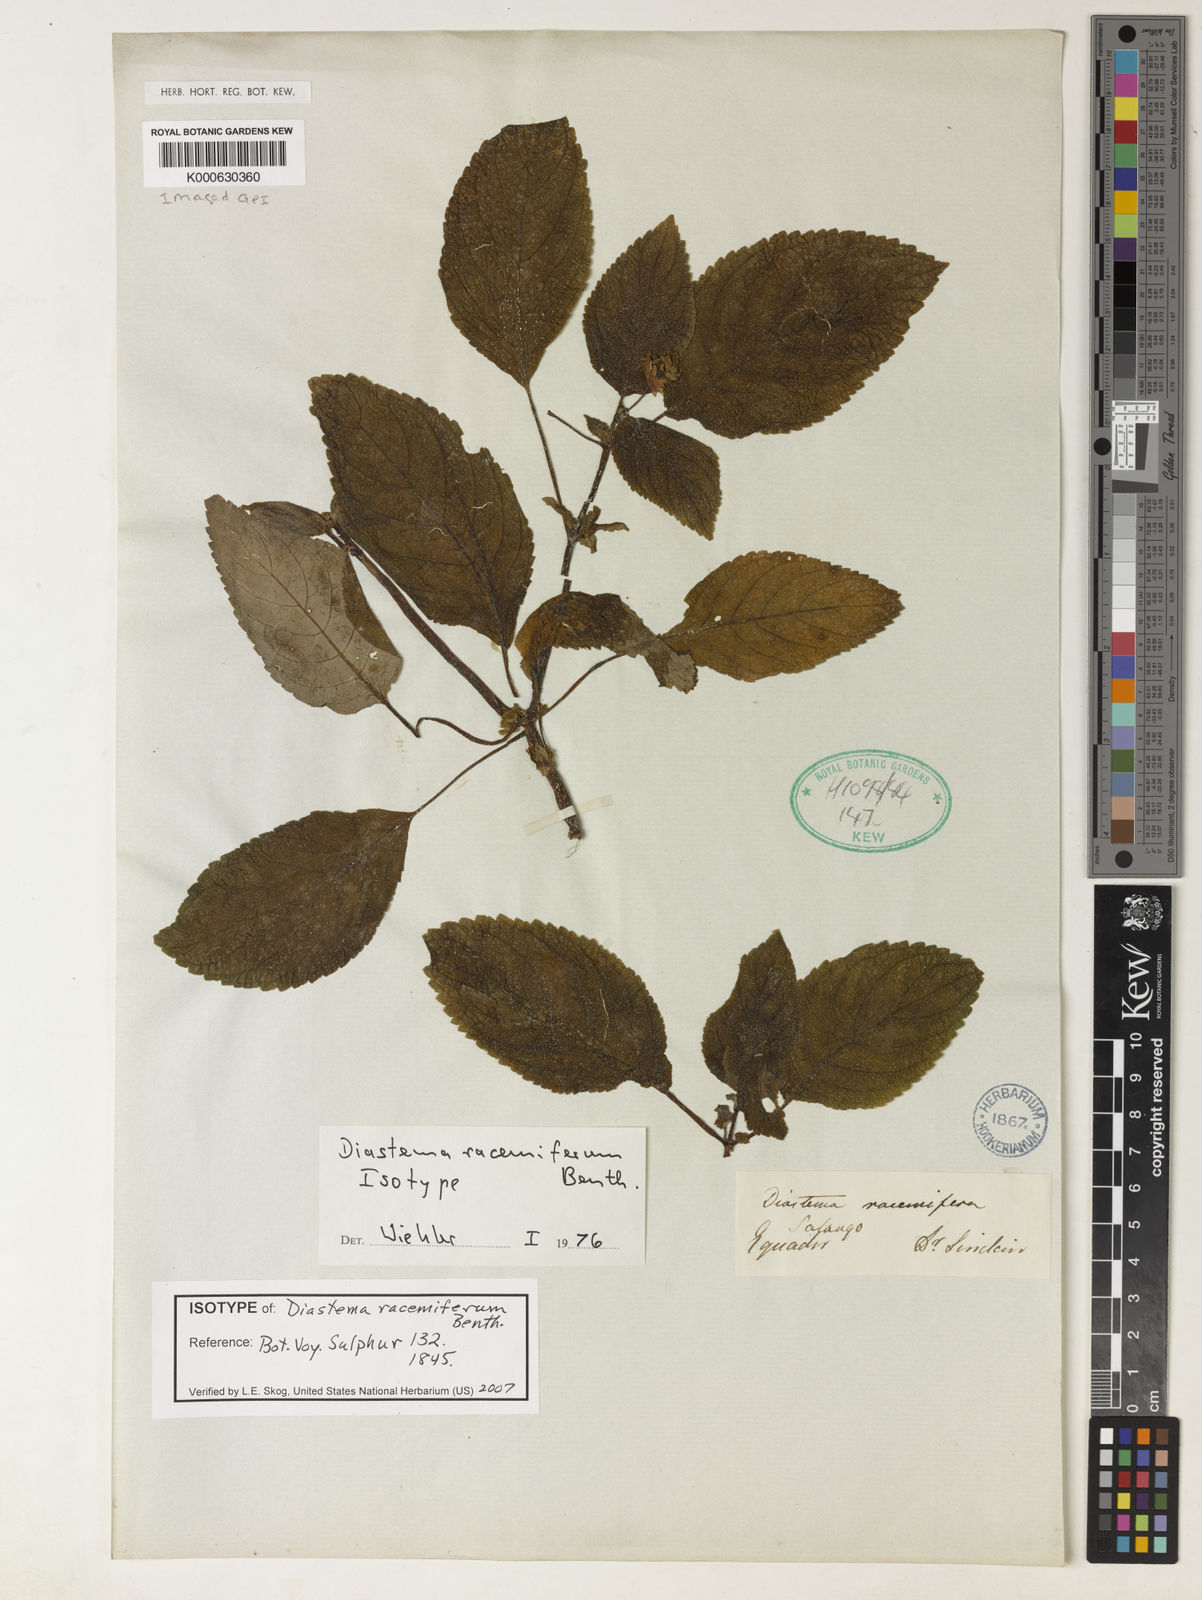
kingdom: Plantae
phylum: Tracheophyta
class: Magnoliopsida
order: Lamiales
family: Gesneriaceae
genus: Diastema
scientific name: Diastema racemiferum
